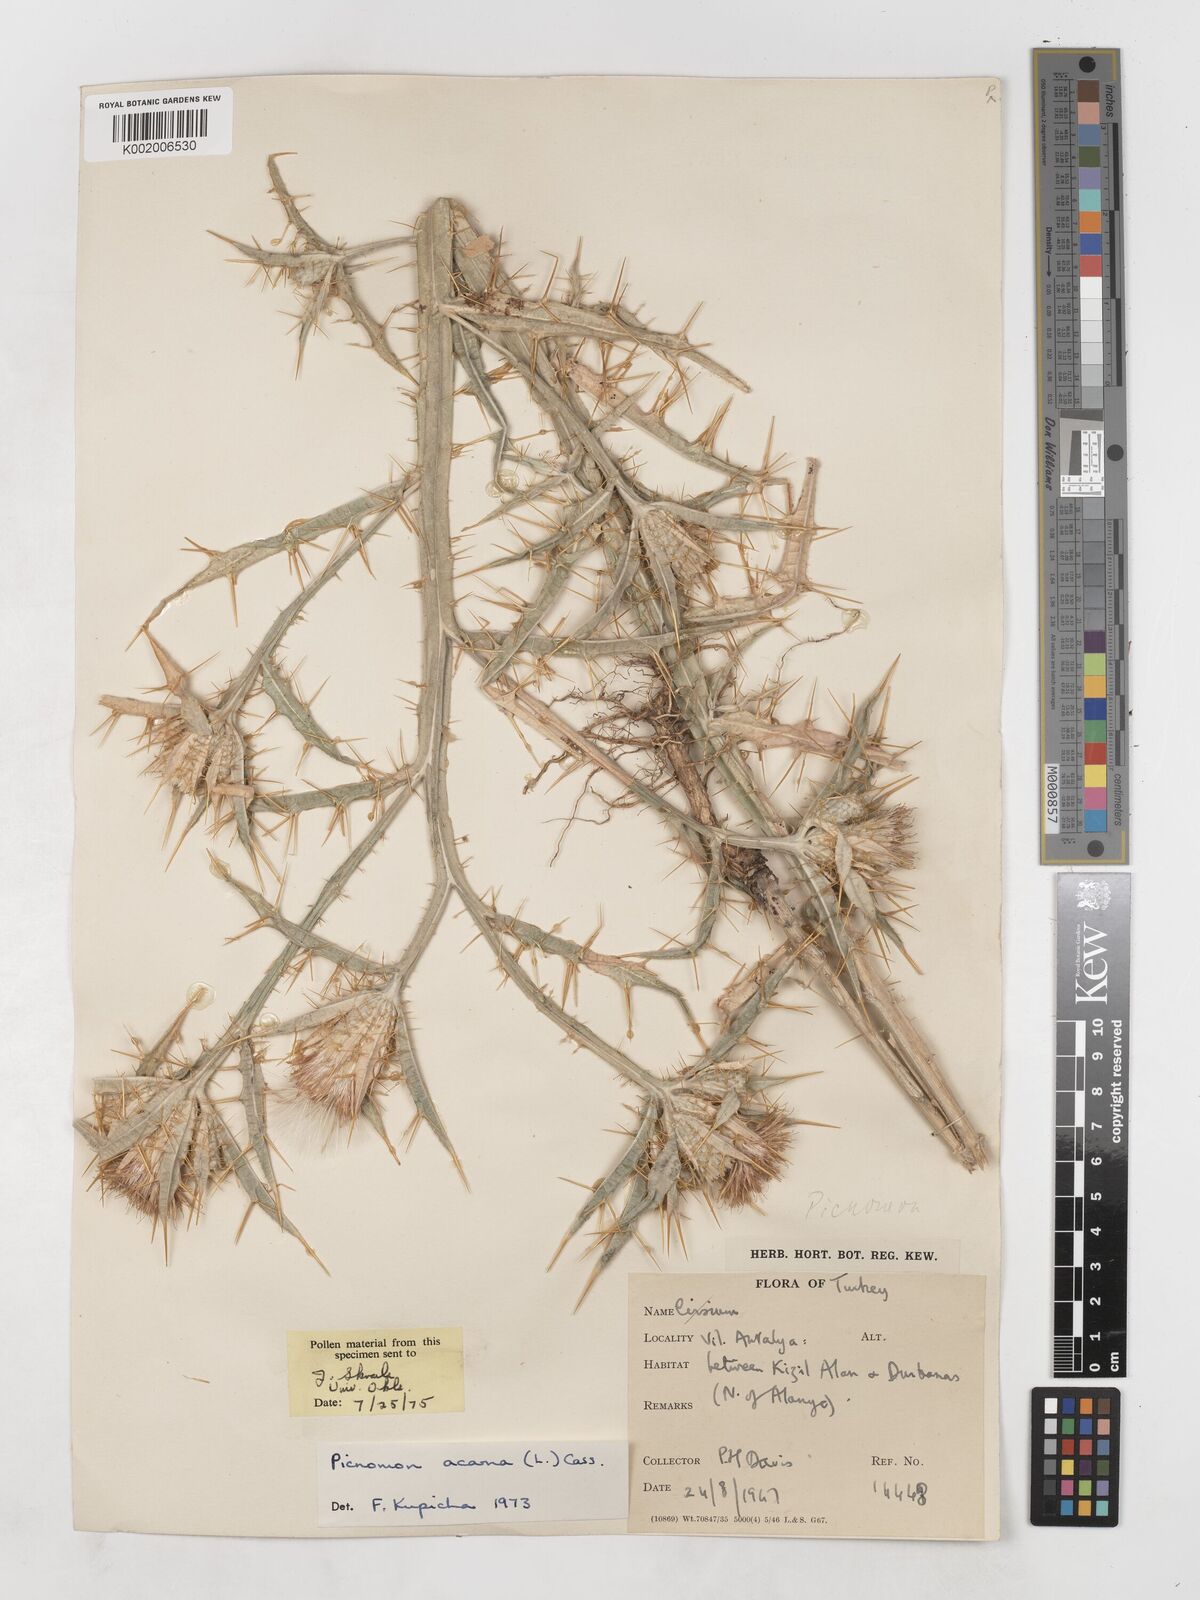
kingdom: Plantae
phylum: Tracheophyta
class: Magnoliopsida
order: Asterales
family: Asteraceae
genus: Picnomon
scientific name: Picnomon acarna
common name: Soldier thistle
